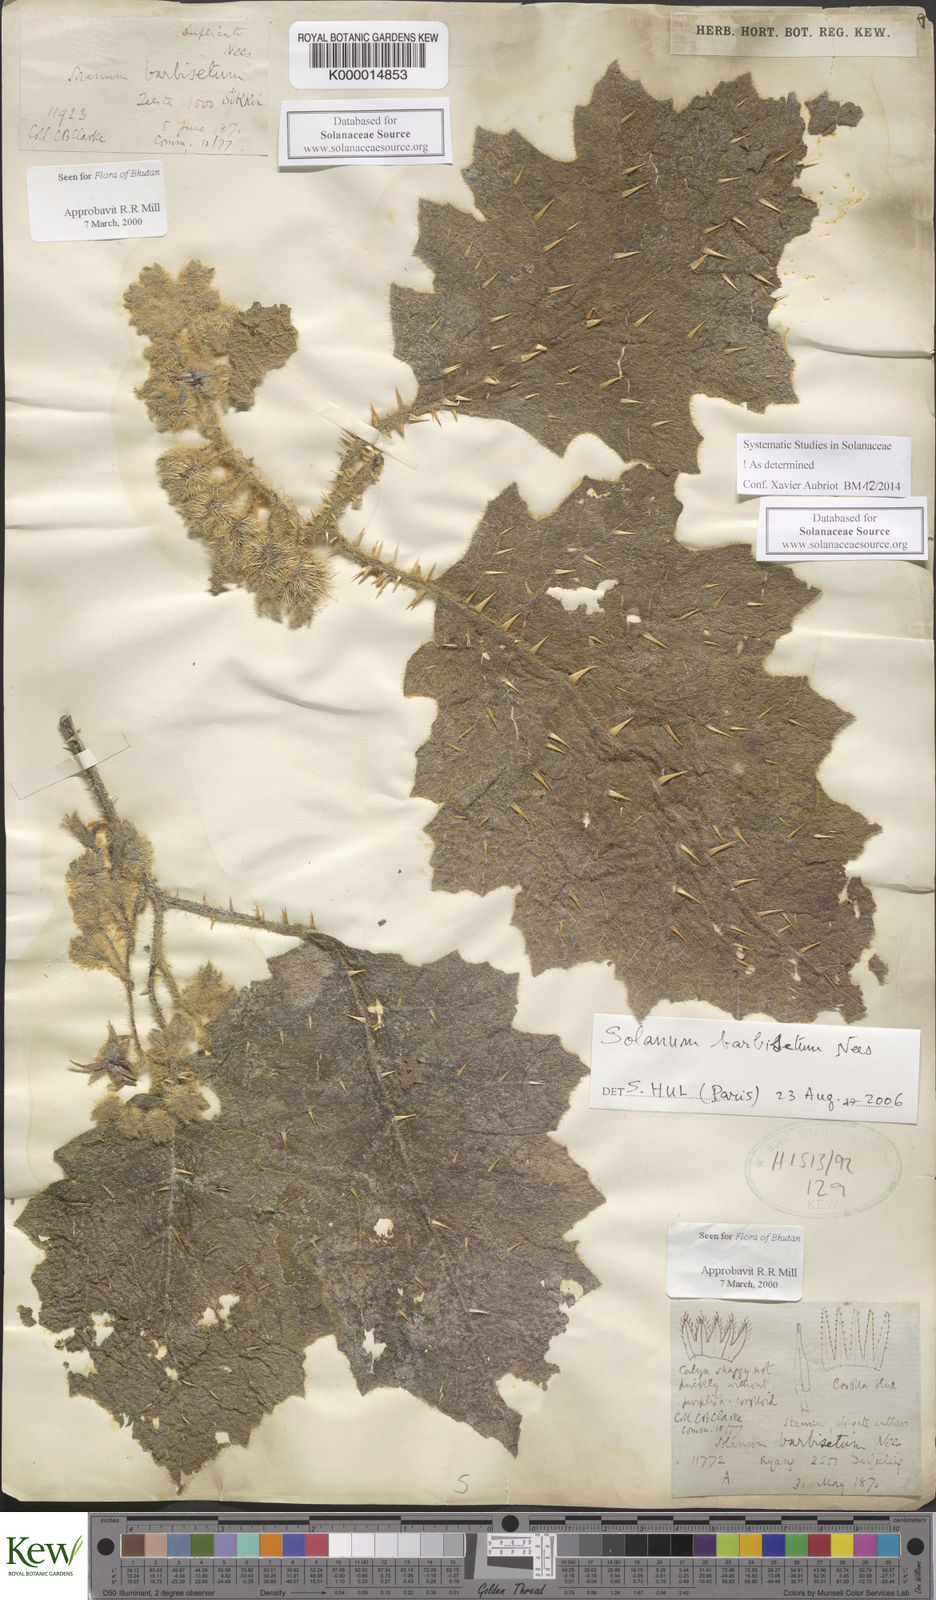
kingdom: Plantae
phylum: Tracheophyta
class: Magnoliopsida
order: Solanales
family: Solanaceae
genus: Solanum
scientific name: Solanum barbisetum
